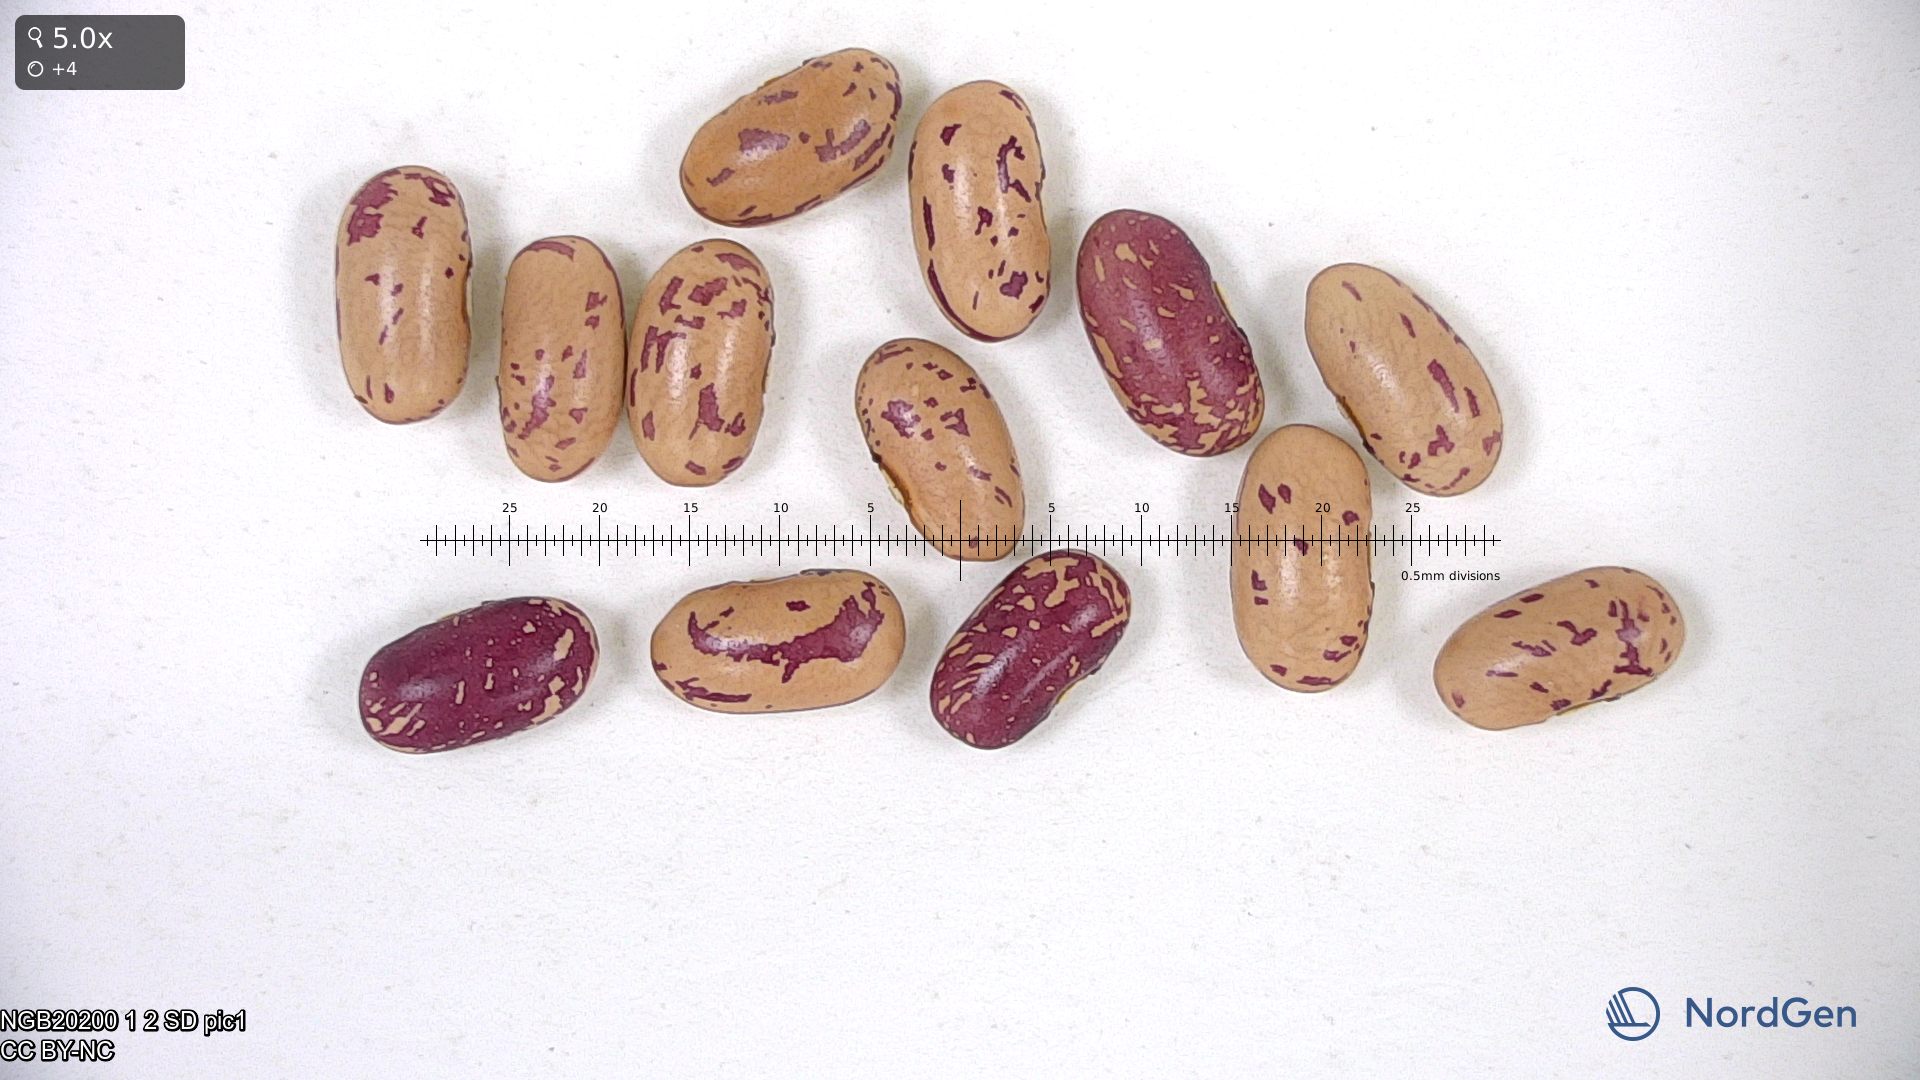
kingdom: Plantae
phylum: Tracheophyta
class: Magnoliopsida
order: Fabales
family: Fabaceae
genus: Phaseolus
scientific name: Phaseolus vulgaris
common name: Bean
